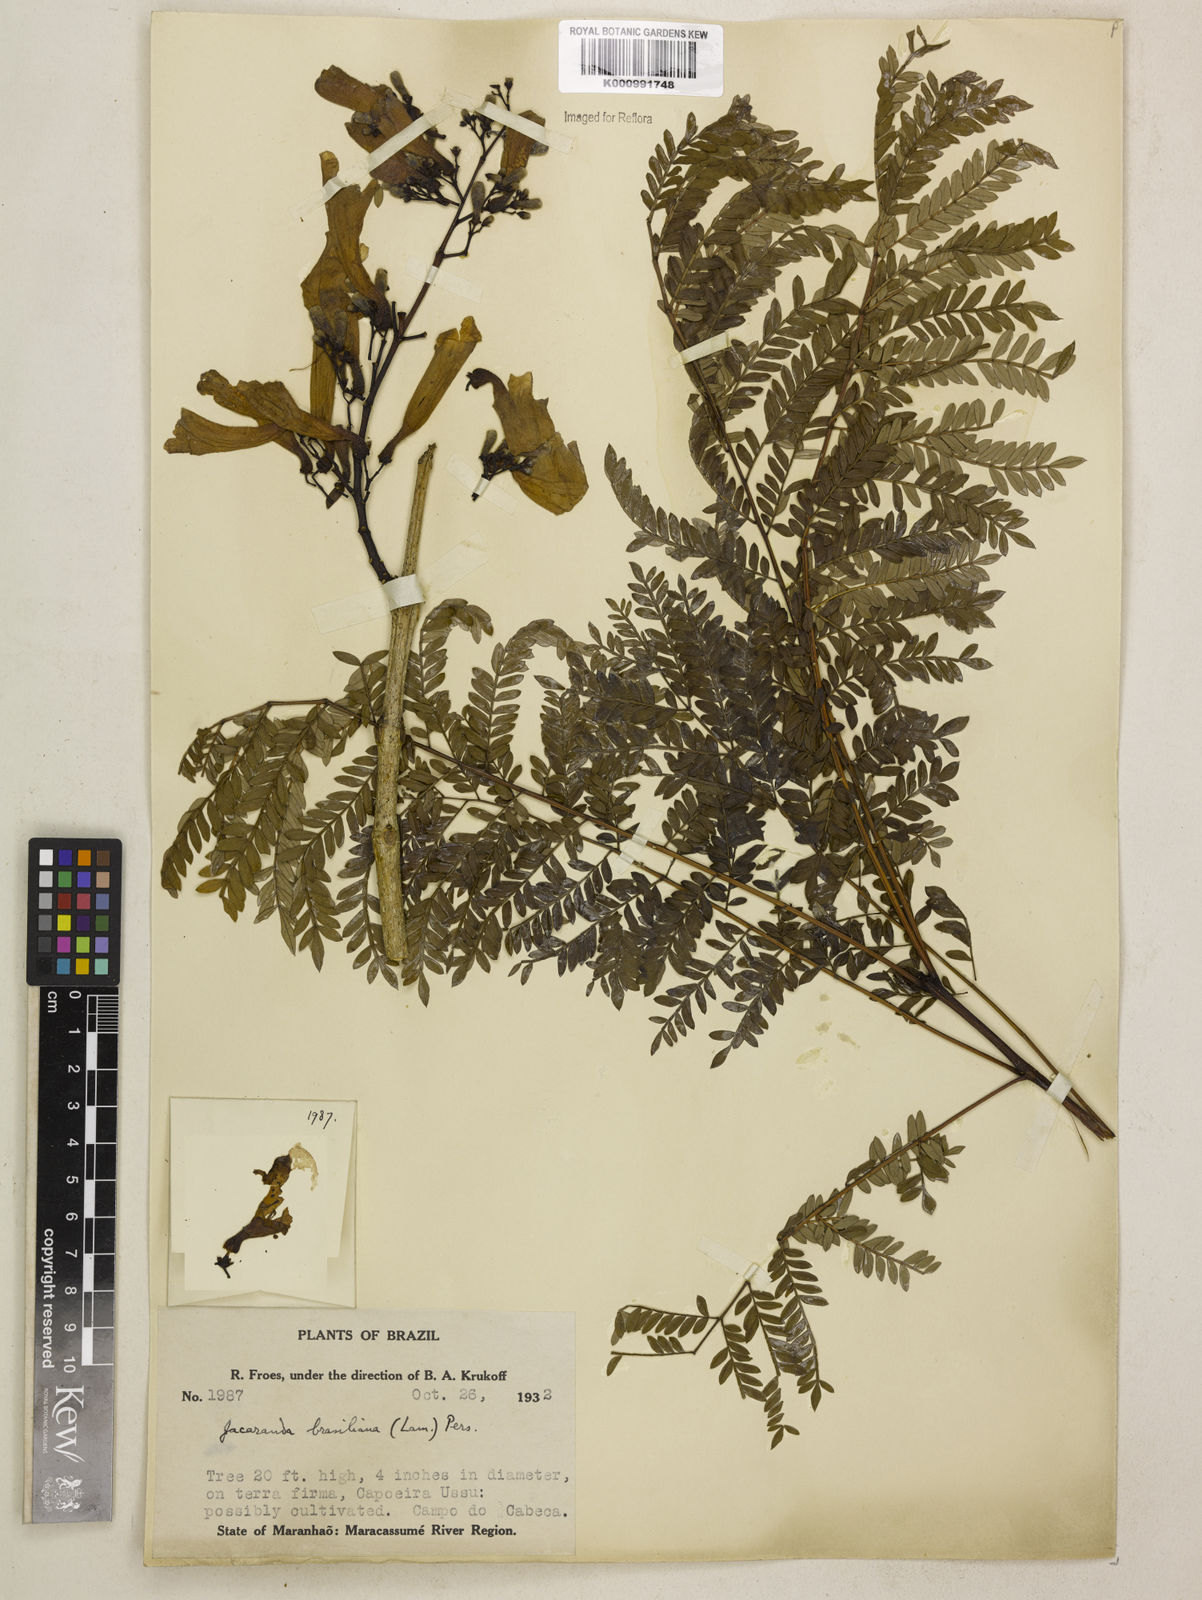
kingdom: Plantae
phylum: Tracheophyta
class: Magnoliopsida
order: Lamiales
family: Bignoniaceae
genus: Jacaranda
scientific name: Jacaranda brasiliana
